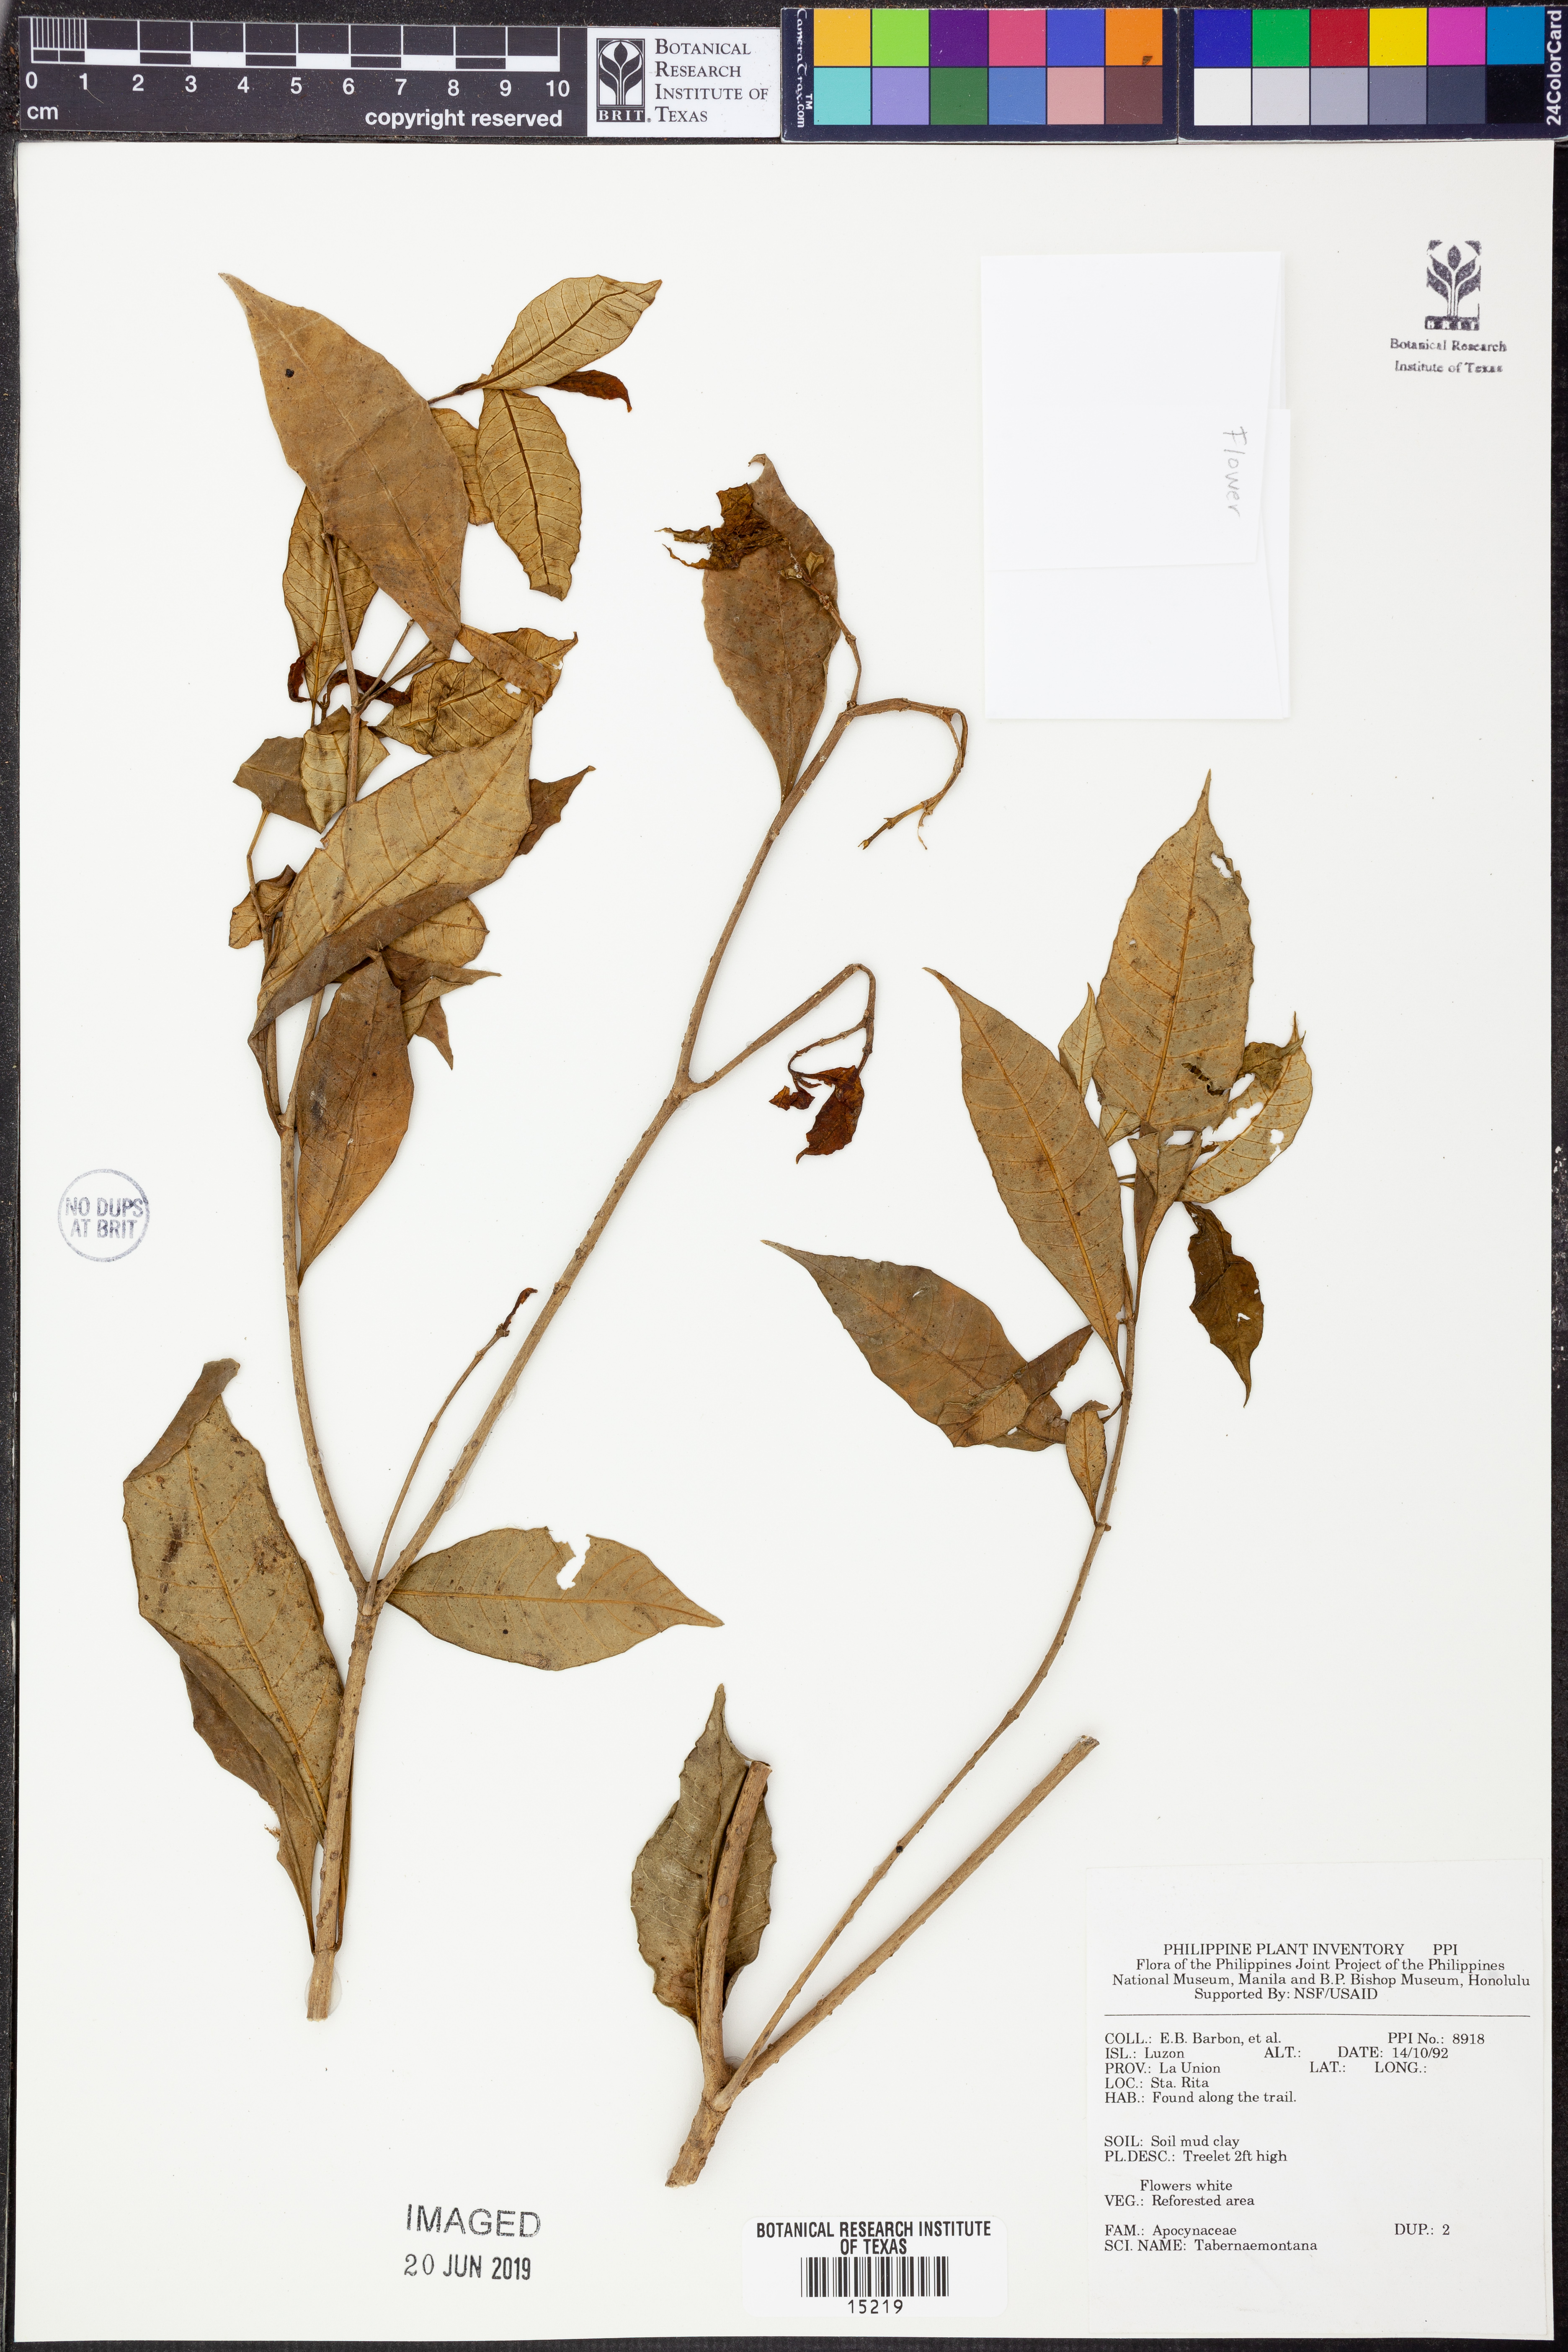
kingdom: Plantae
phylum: Tracheophyta
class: Magnoliopsida
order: Gentianales
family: Apocynaceae
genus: Tabernaemontana
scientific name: Tabernaemontana
